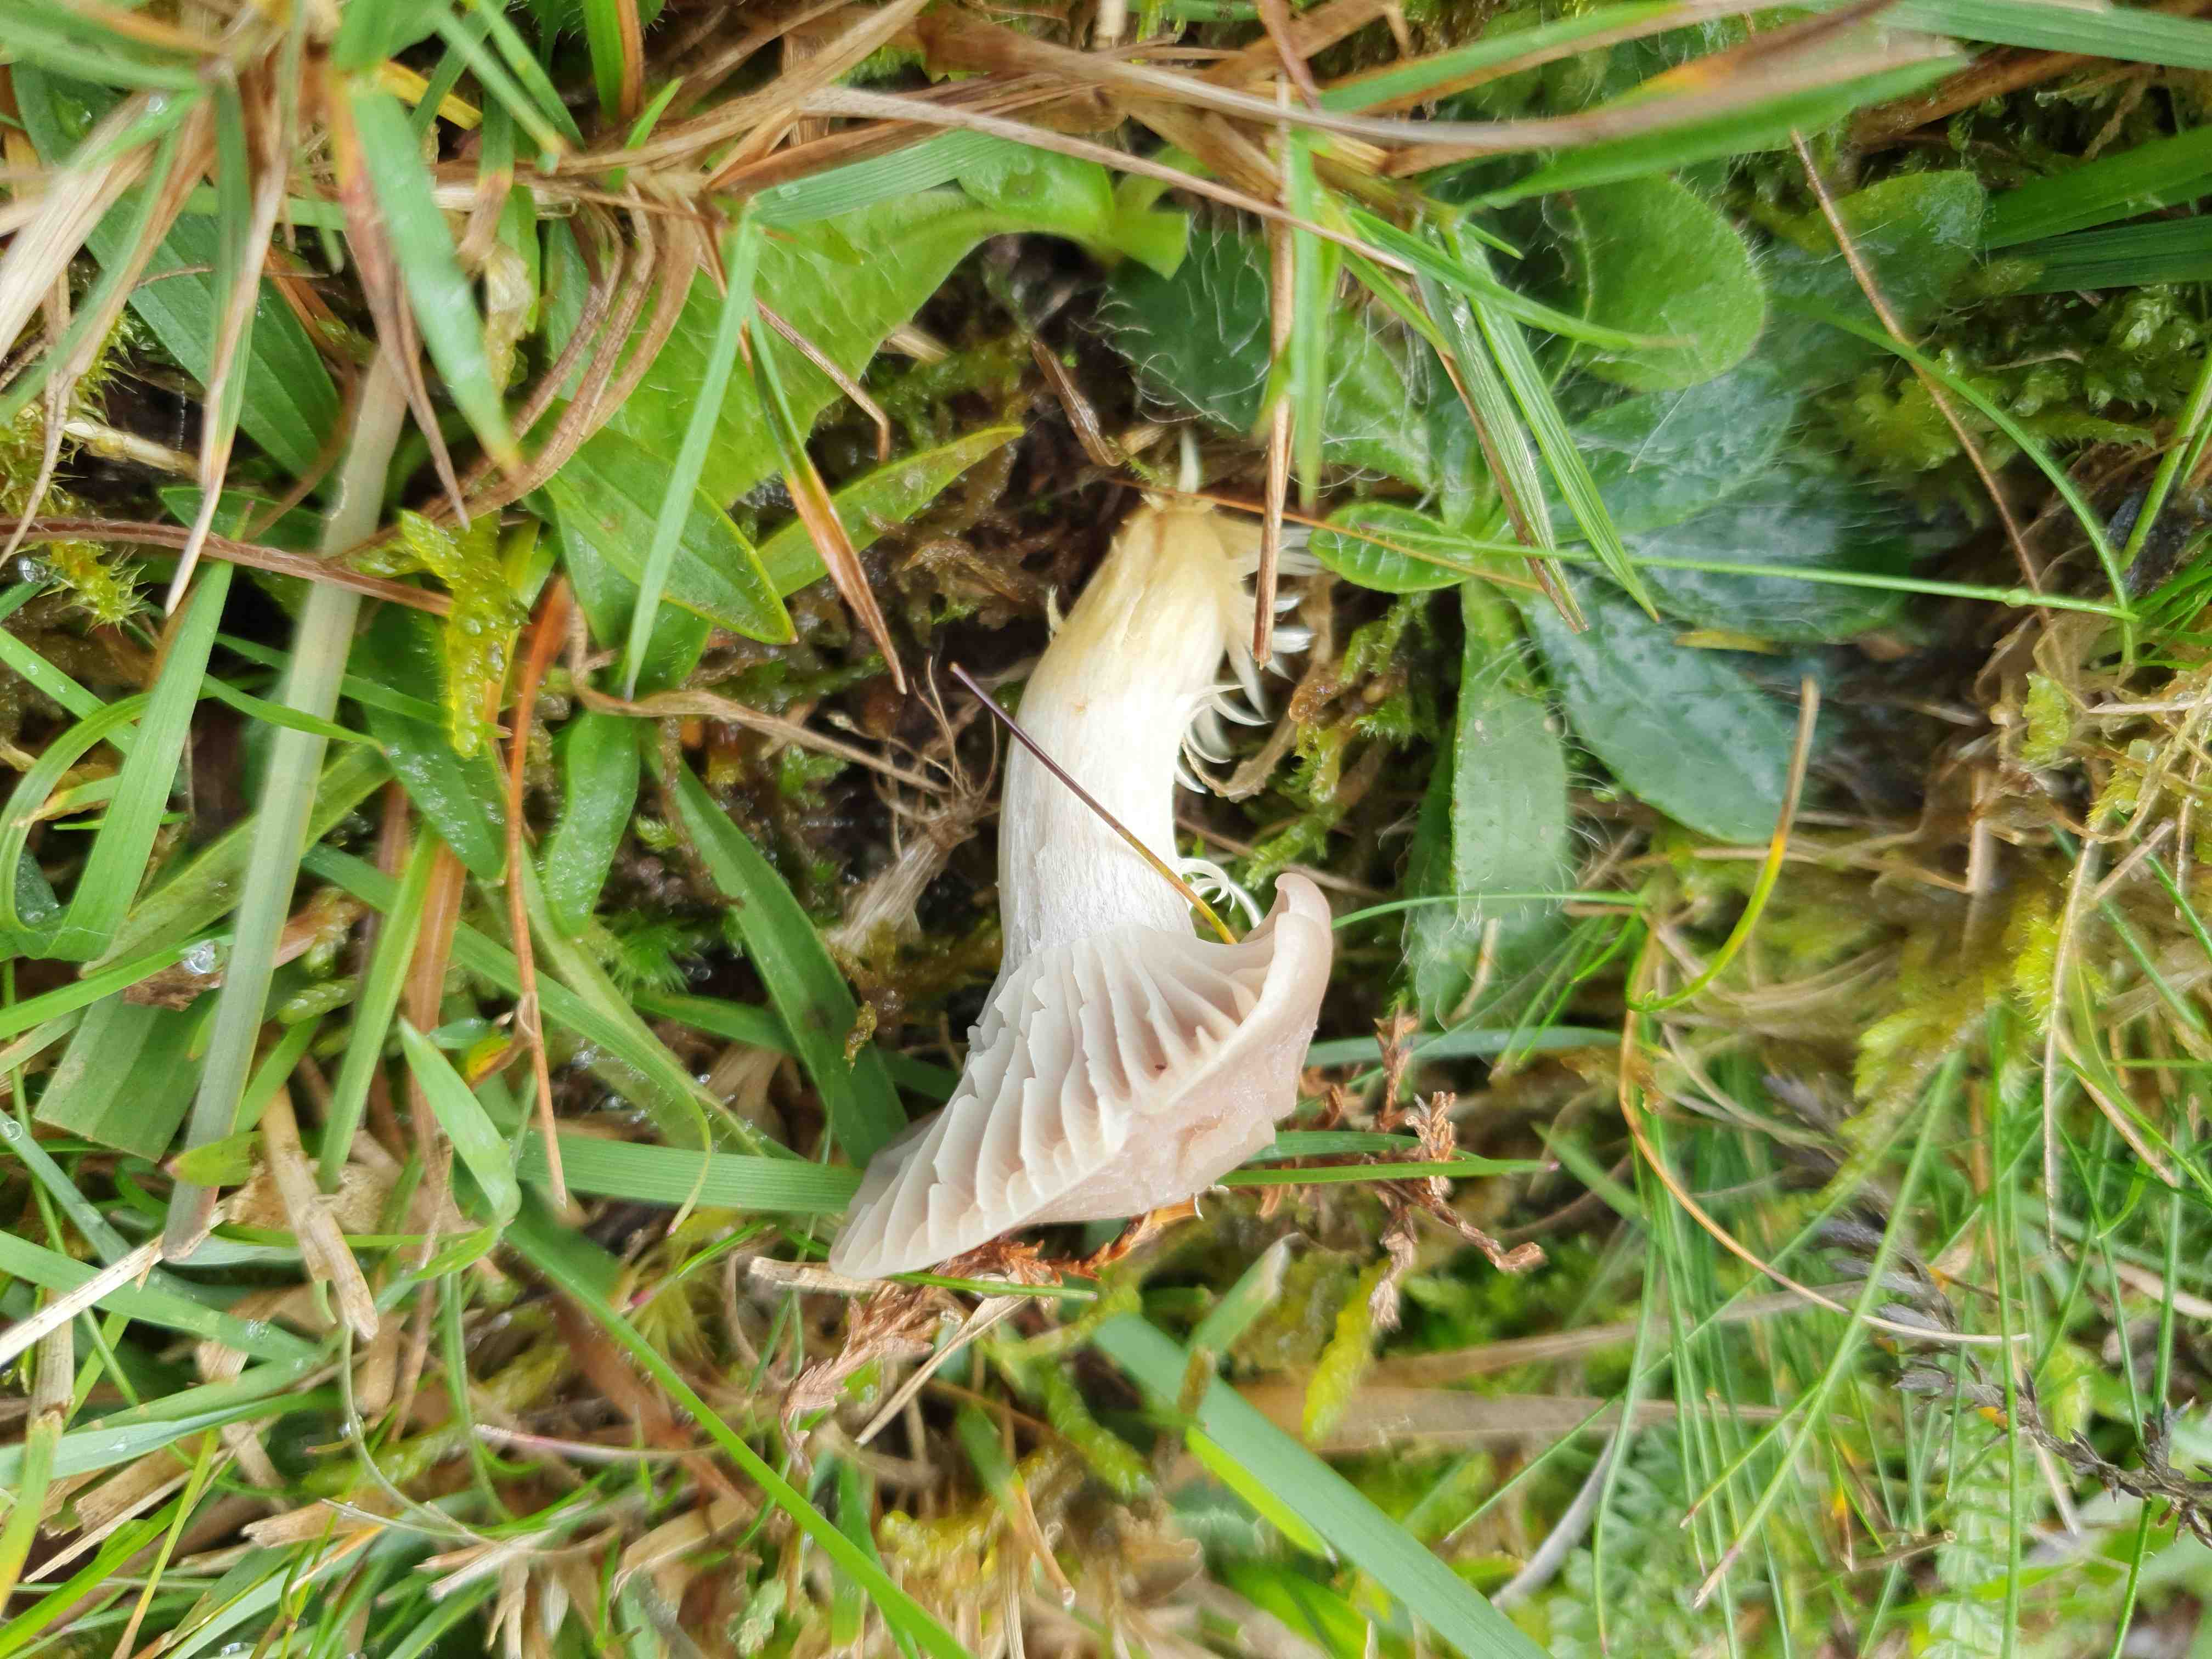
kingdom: Fungi
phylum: Basidiomycota
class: Agaricomycetes
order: Agaricales
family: Hygrophoraceae
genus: Cuphophyllus
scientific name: Cuphophyllus flavipes
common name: gulfodet vokshat
